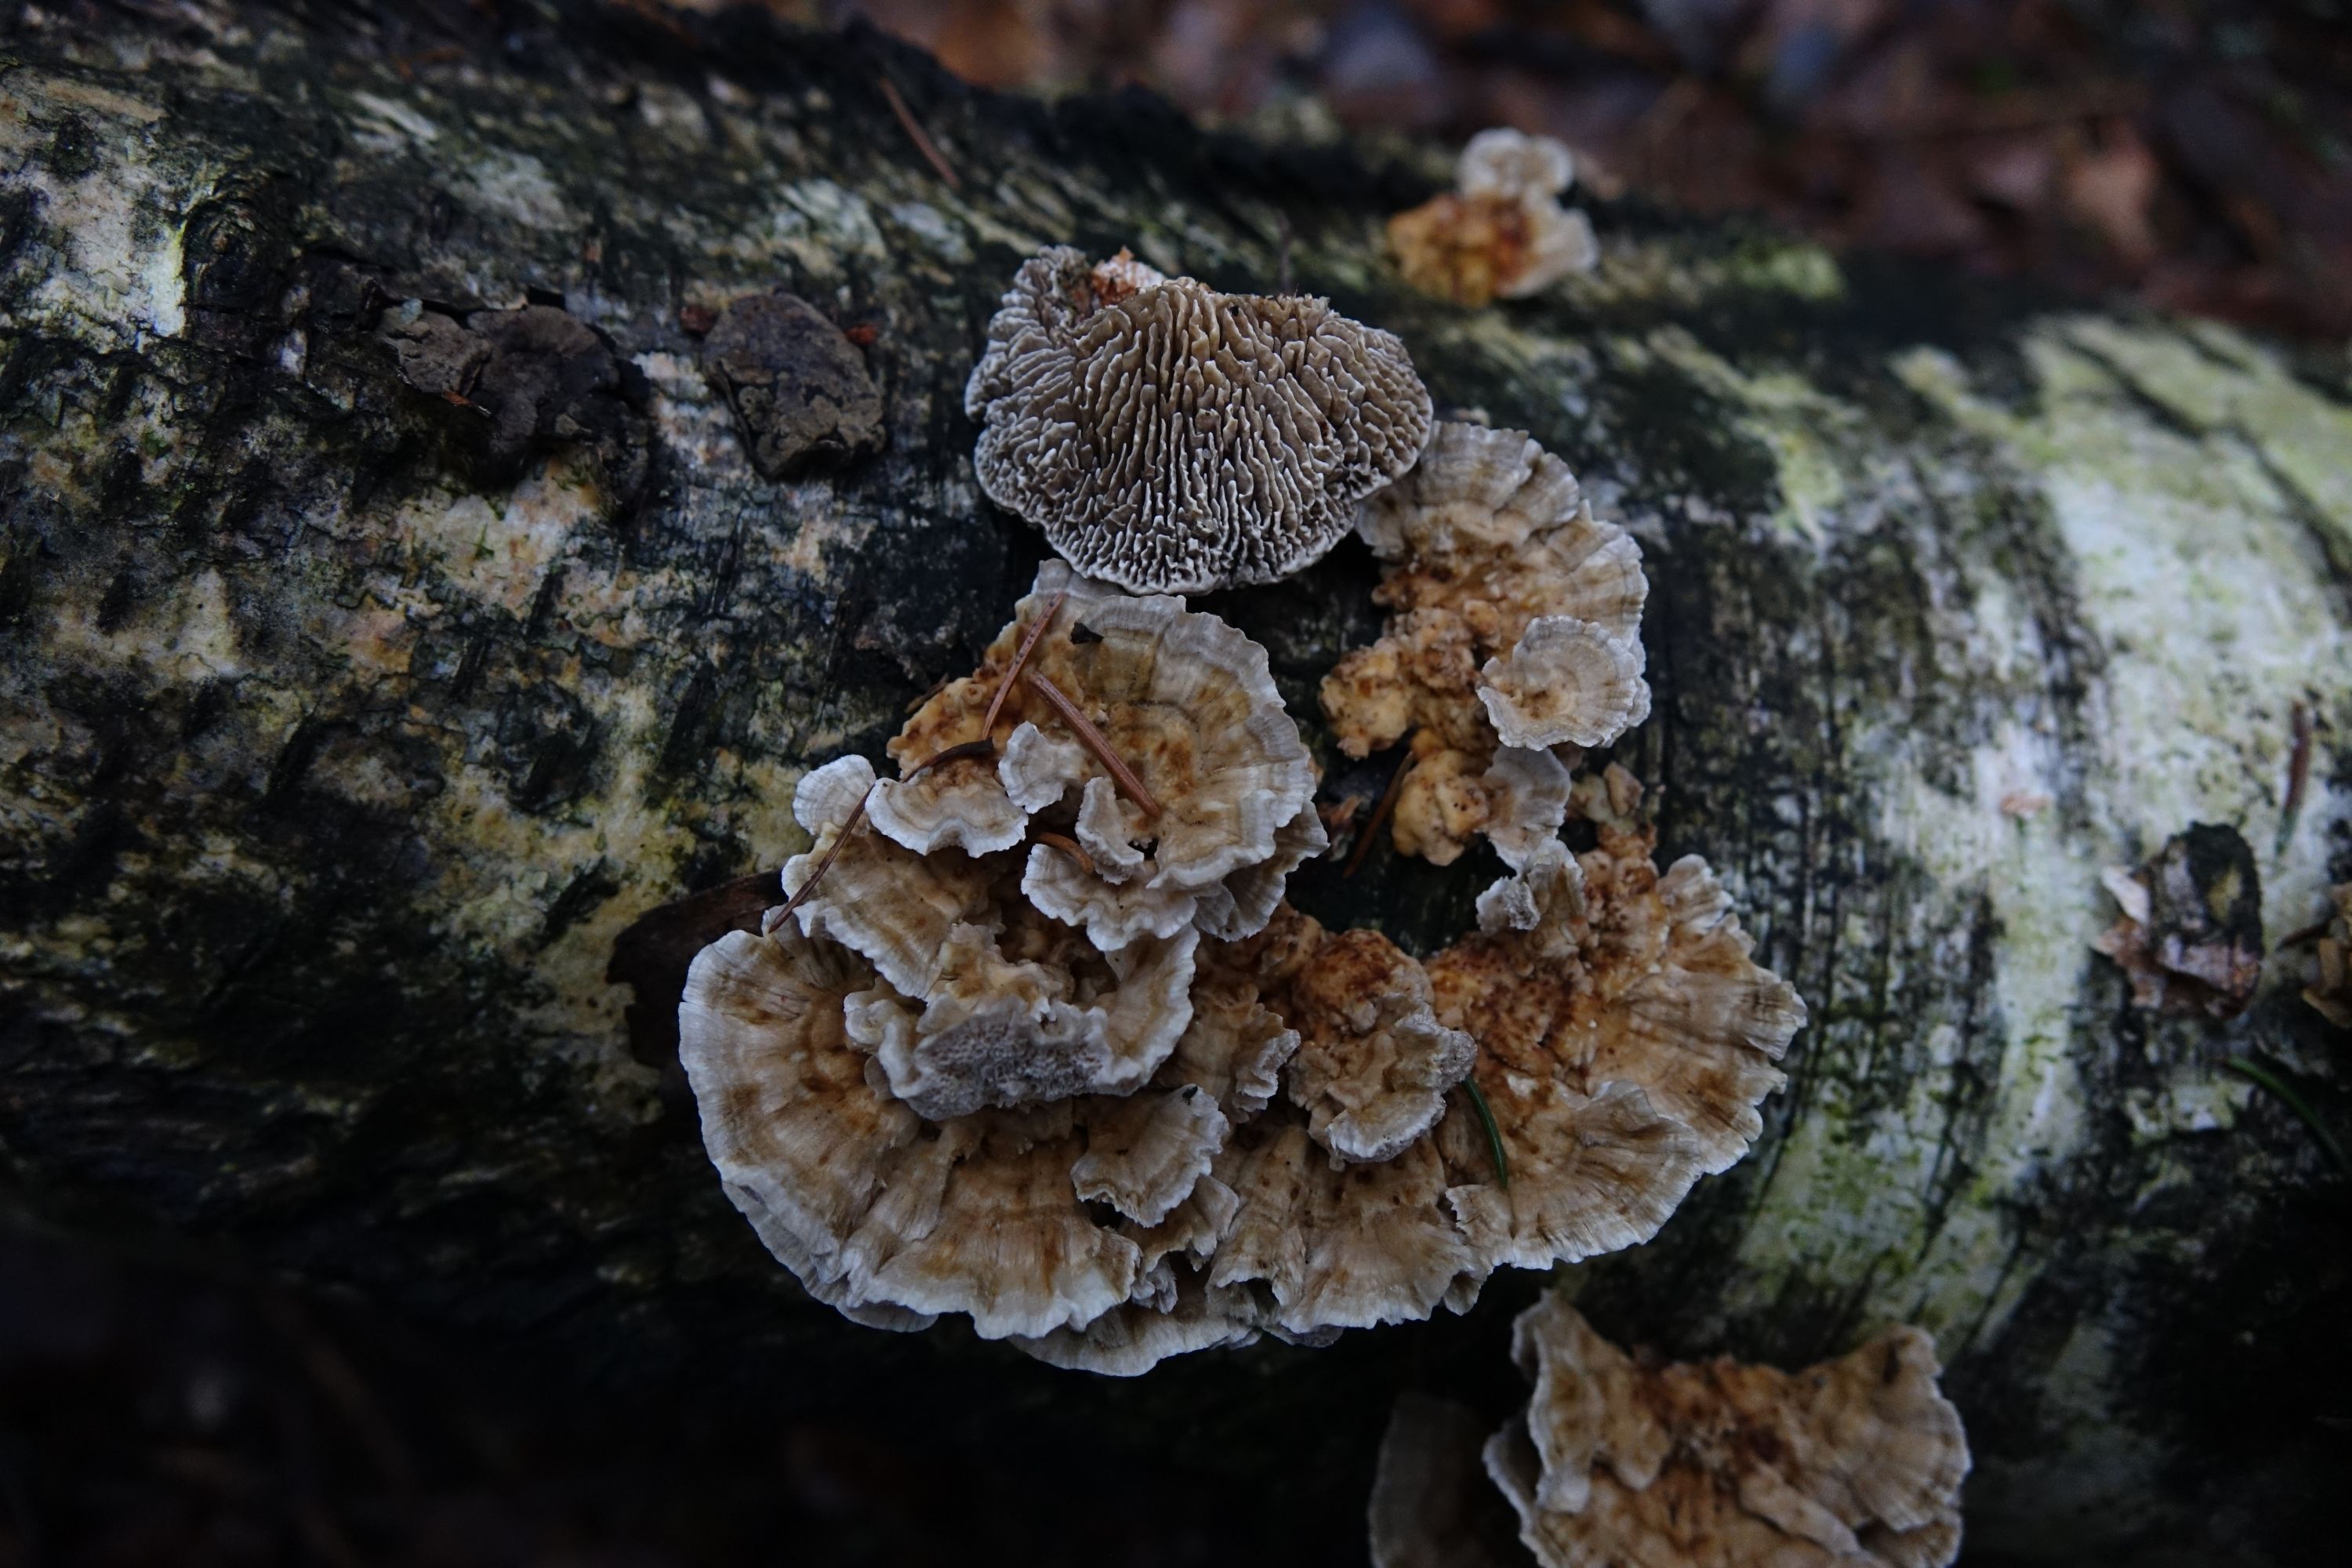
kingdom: Fungi
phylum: Basidiomycota
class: Agaricomycetes
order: Polyporales
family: Polyporaceae
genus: Lenzites
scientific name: Lenzites betulinus
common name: Birch mazegill
